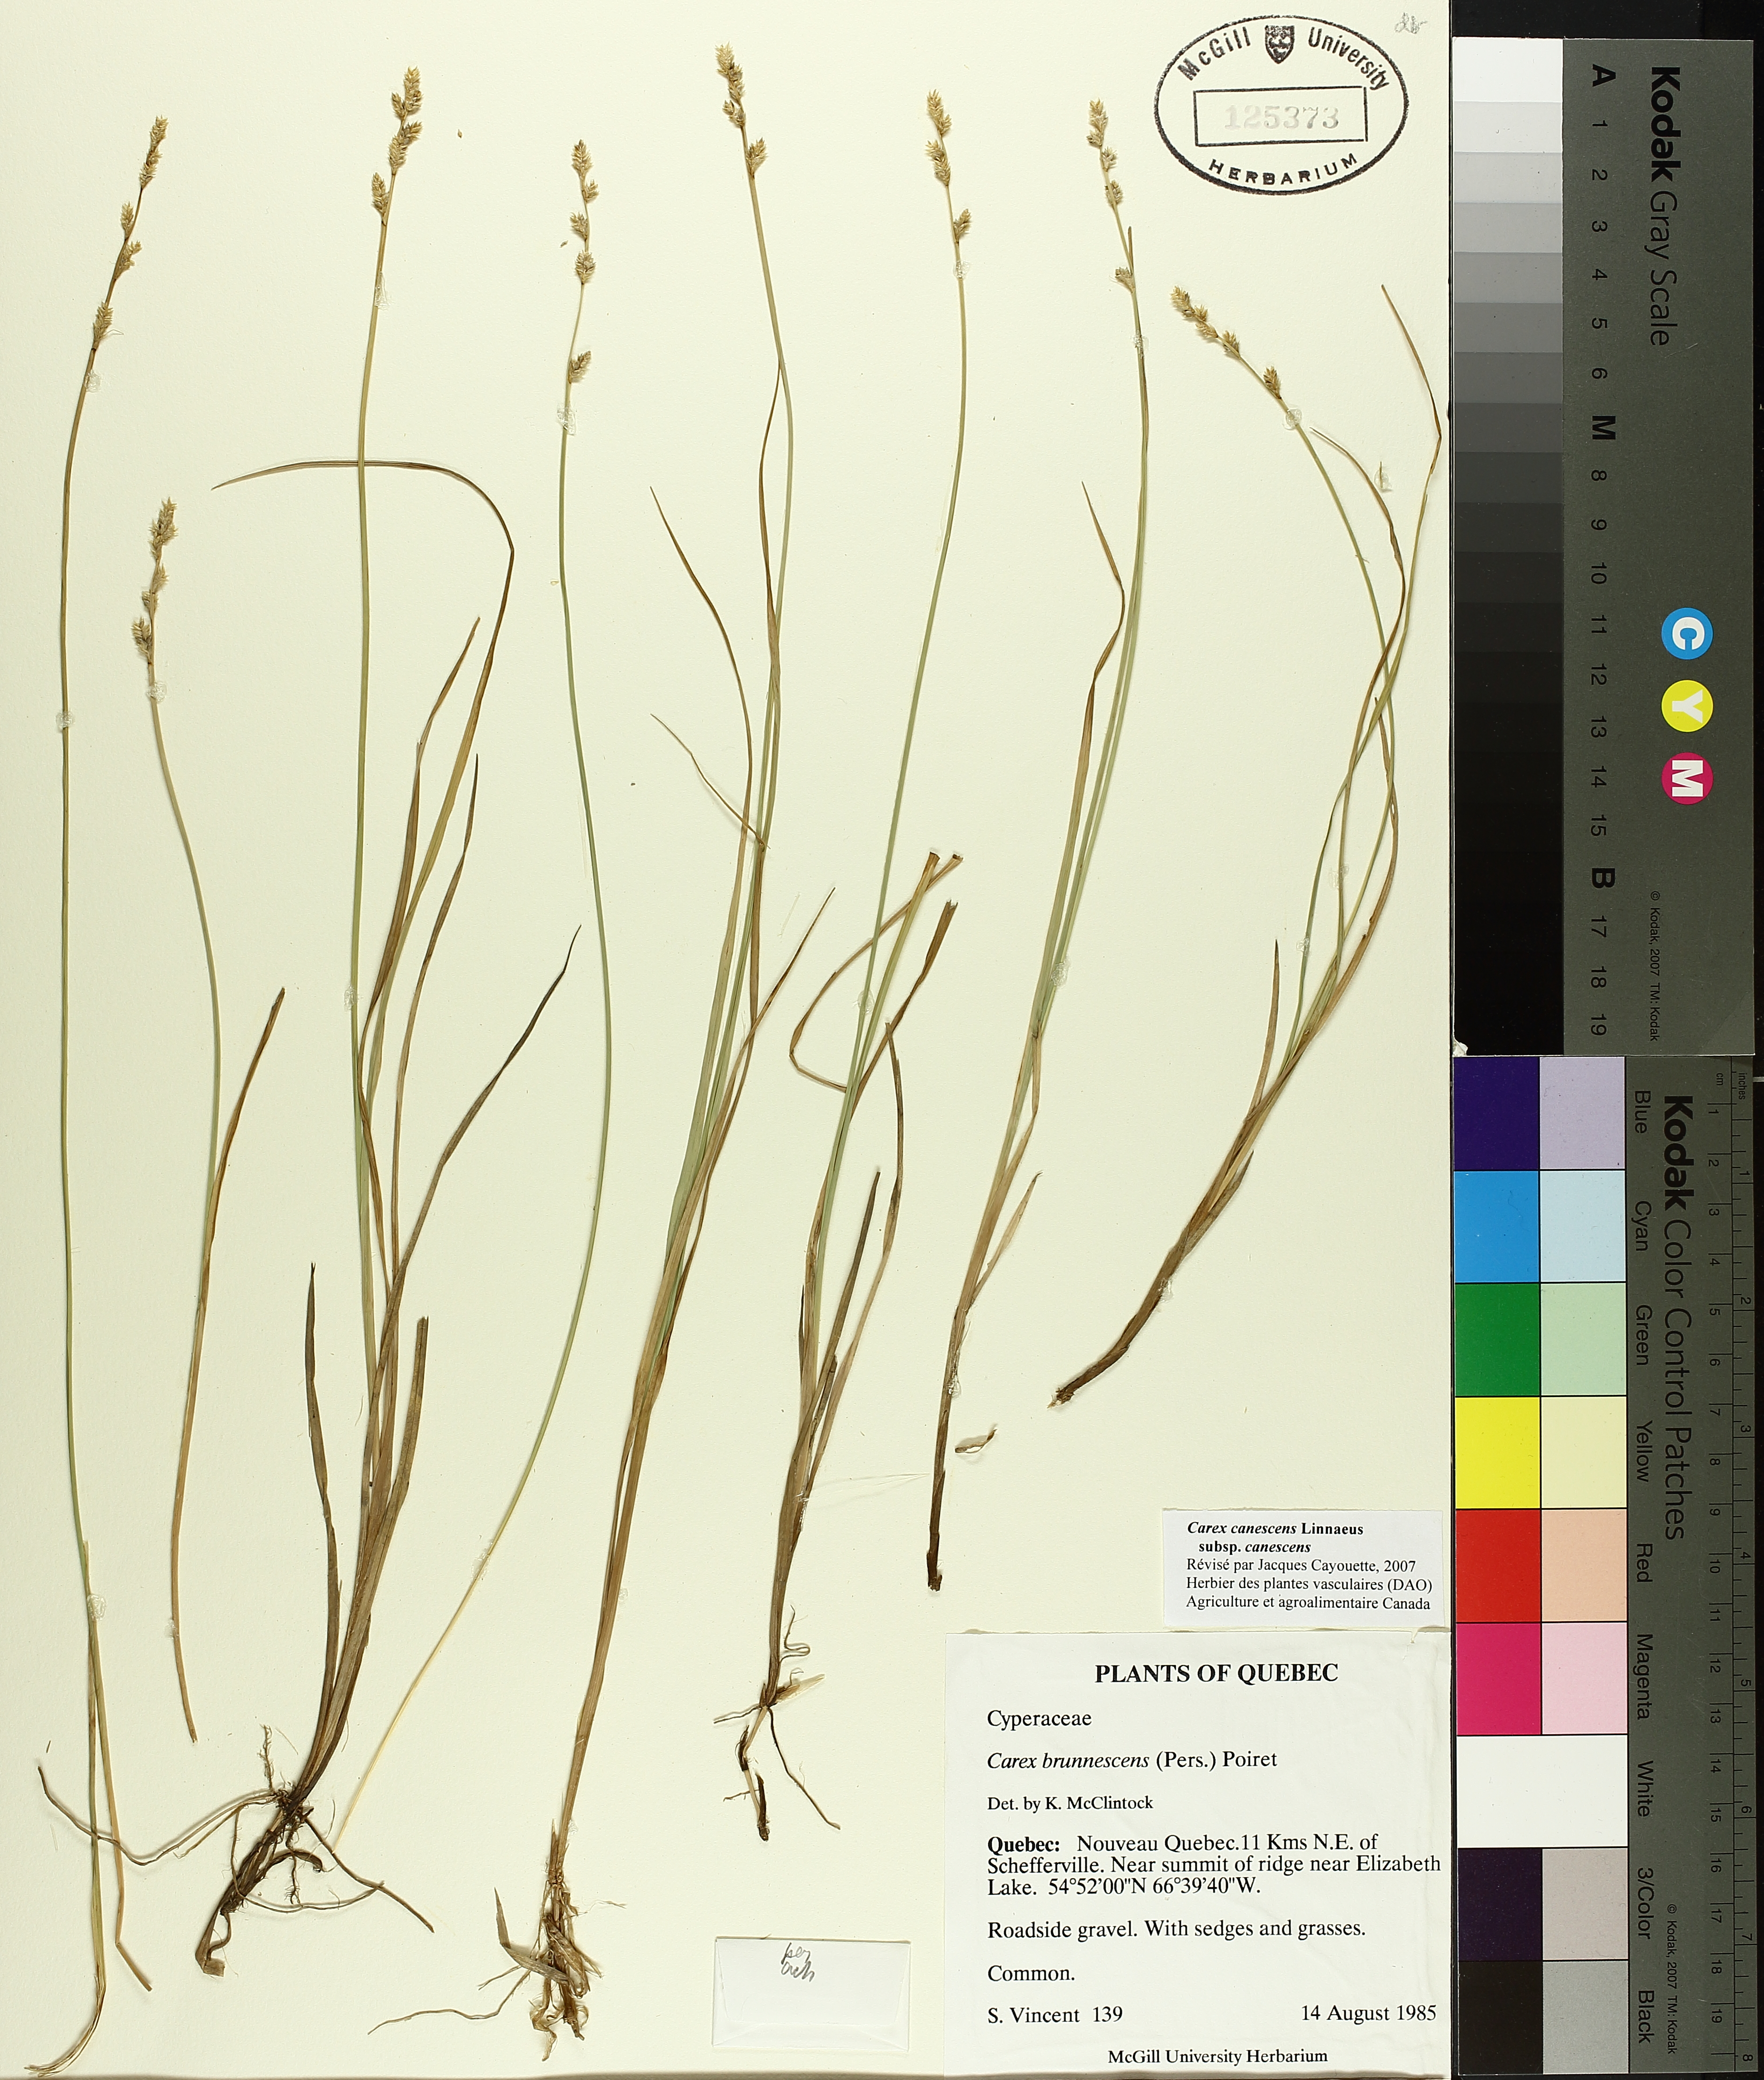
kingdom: Plantae
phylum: Tracheophyta
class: Liliopsida
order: Poales
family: Cyperaceae
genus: Carex
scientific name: Carex canescens
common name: White sedge
